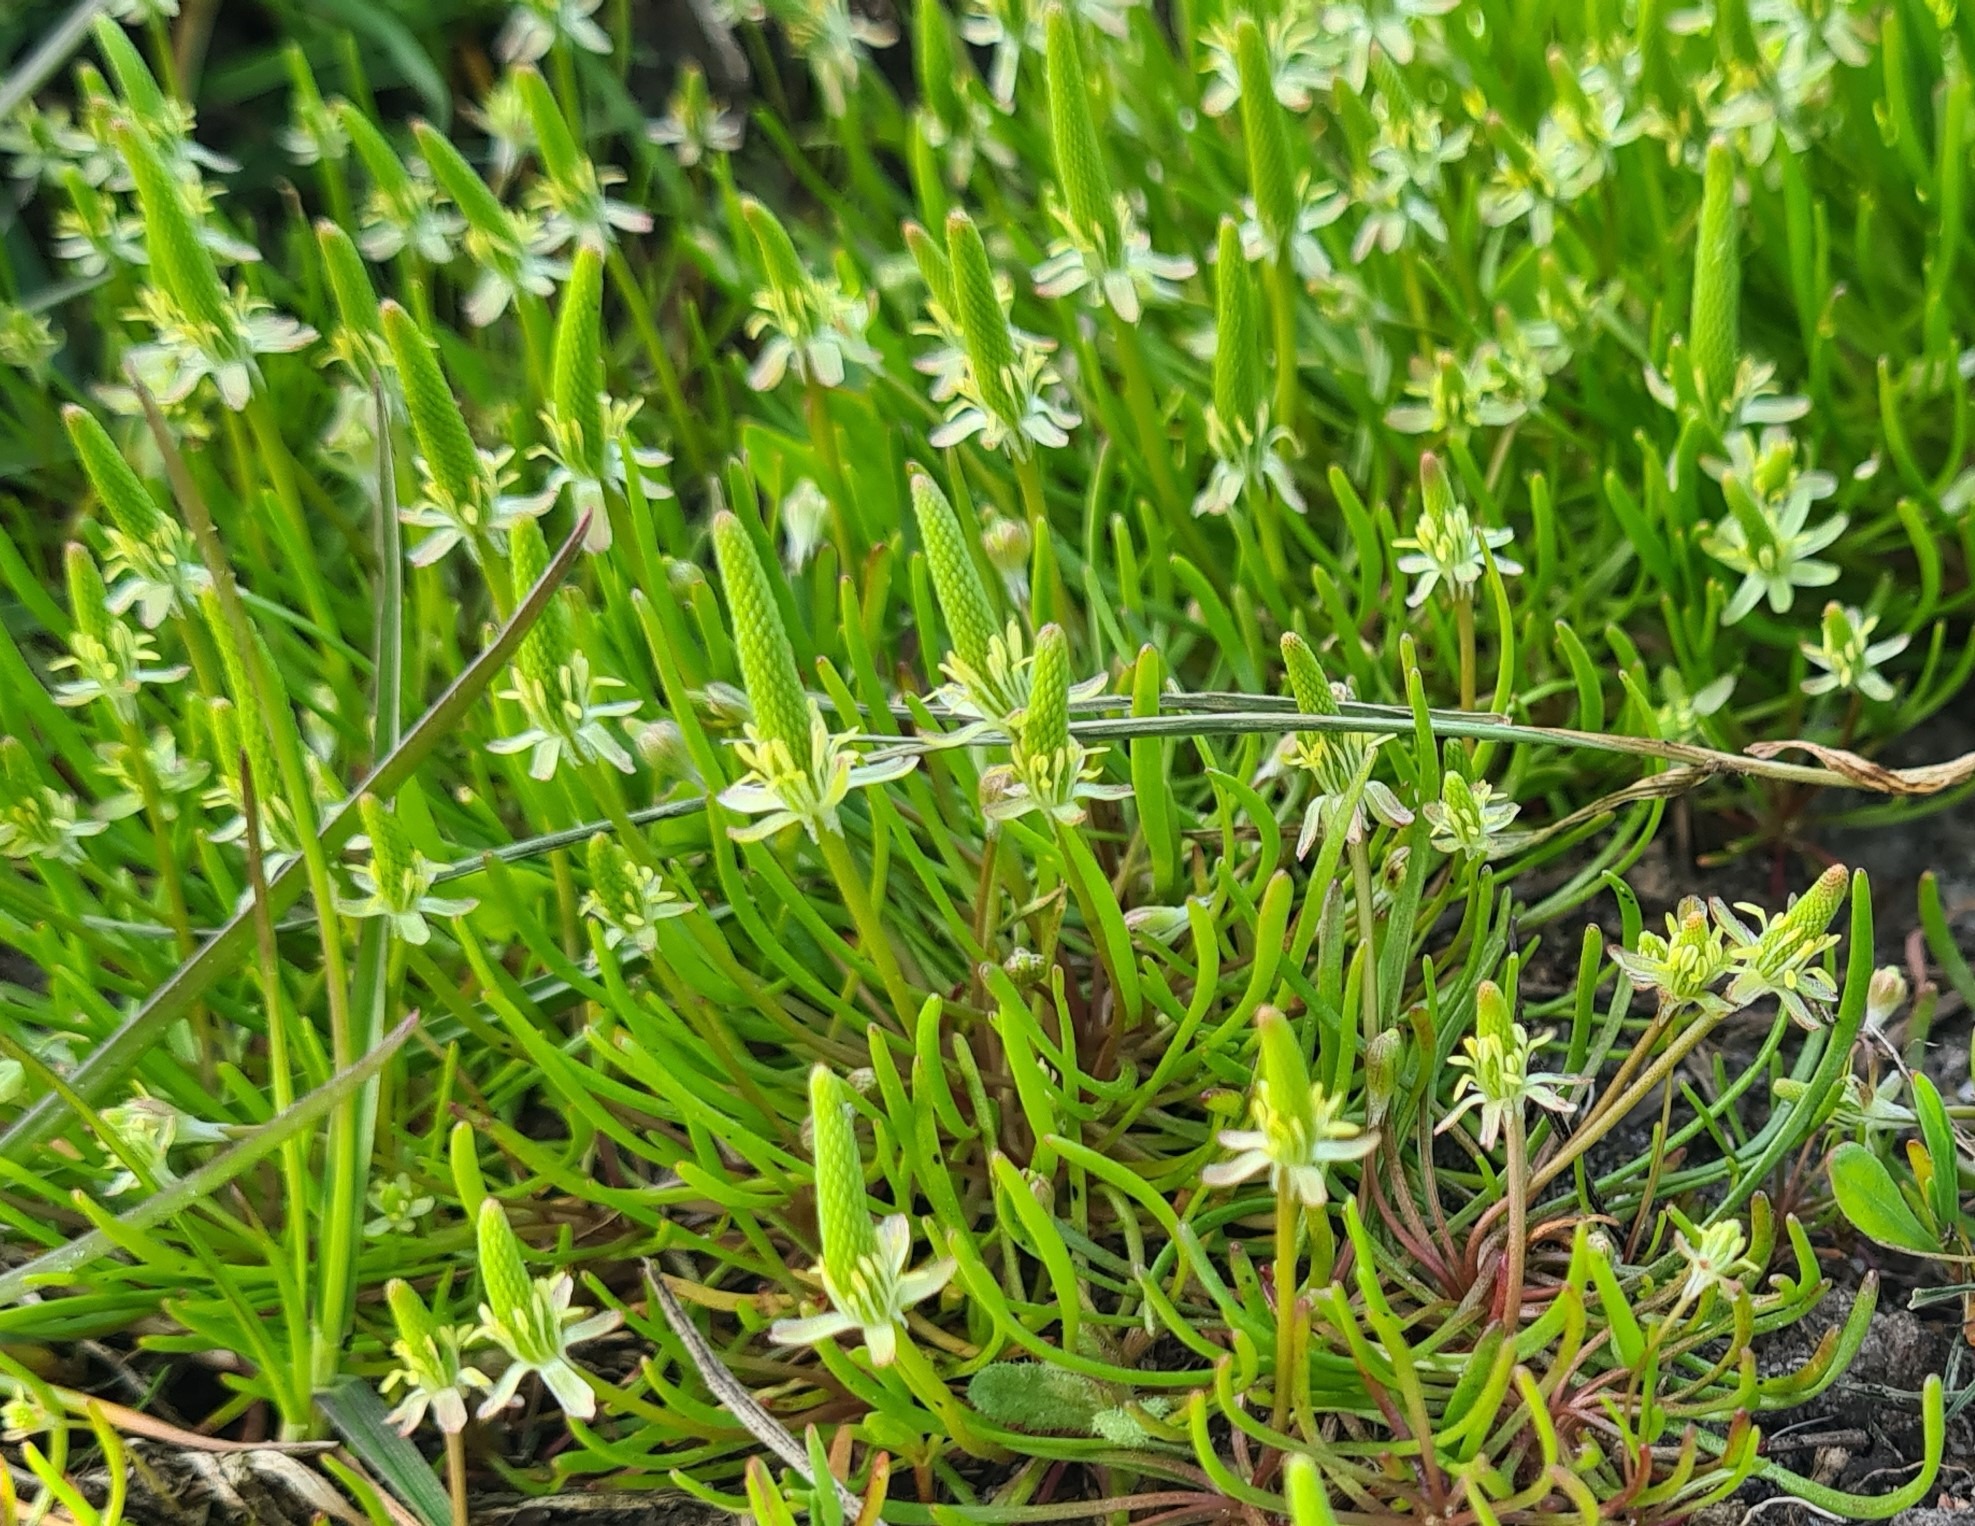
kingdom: Plantae
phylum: Tracheophyta
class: Magnoliopsida
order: Ranunculales
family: Ranunculaceae
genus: Myosurus
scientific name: Myosurus minimus
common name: Musehale
